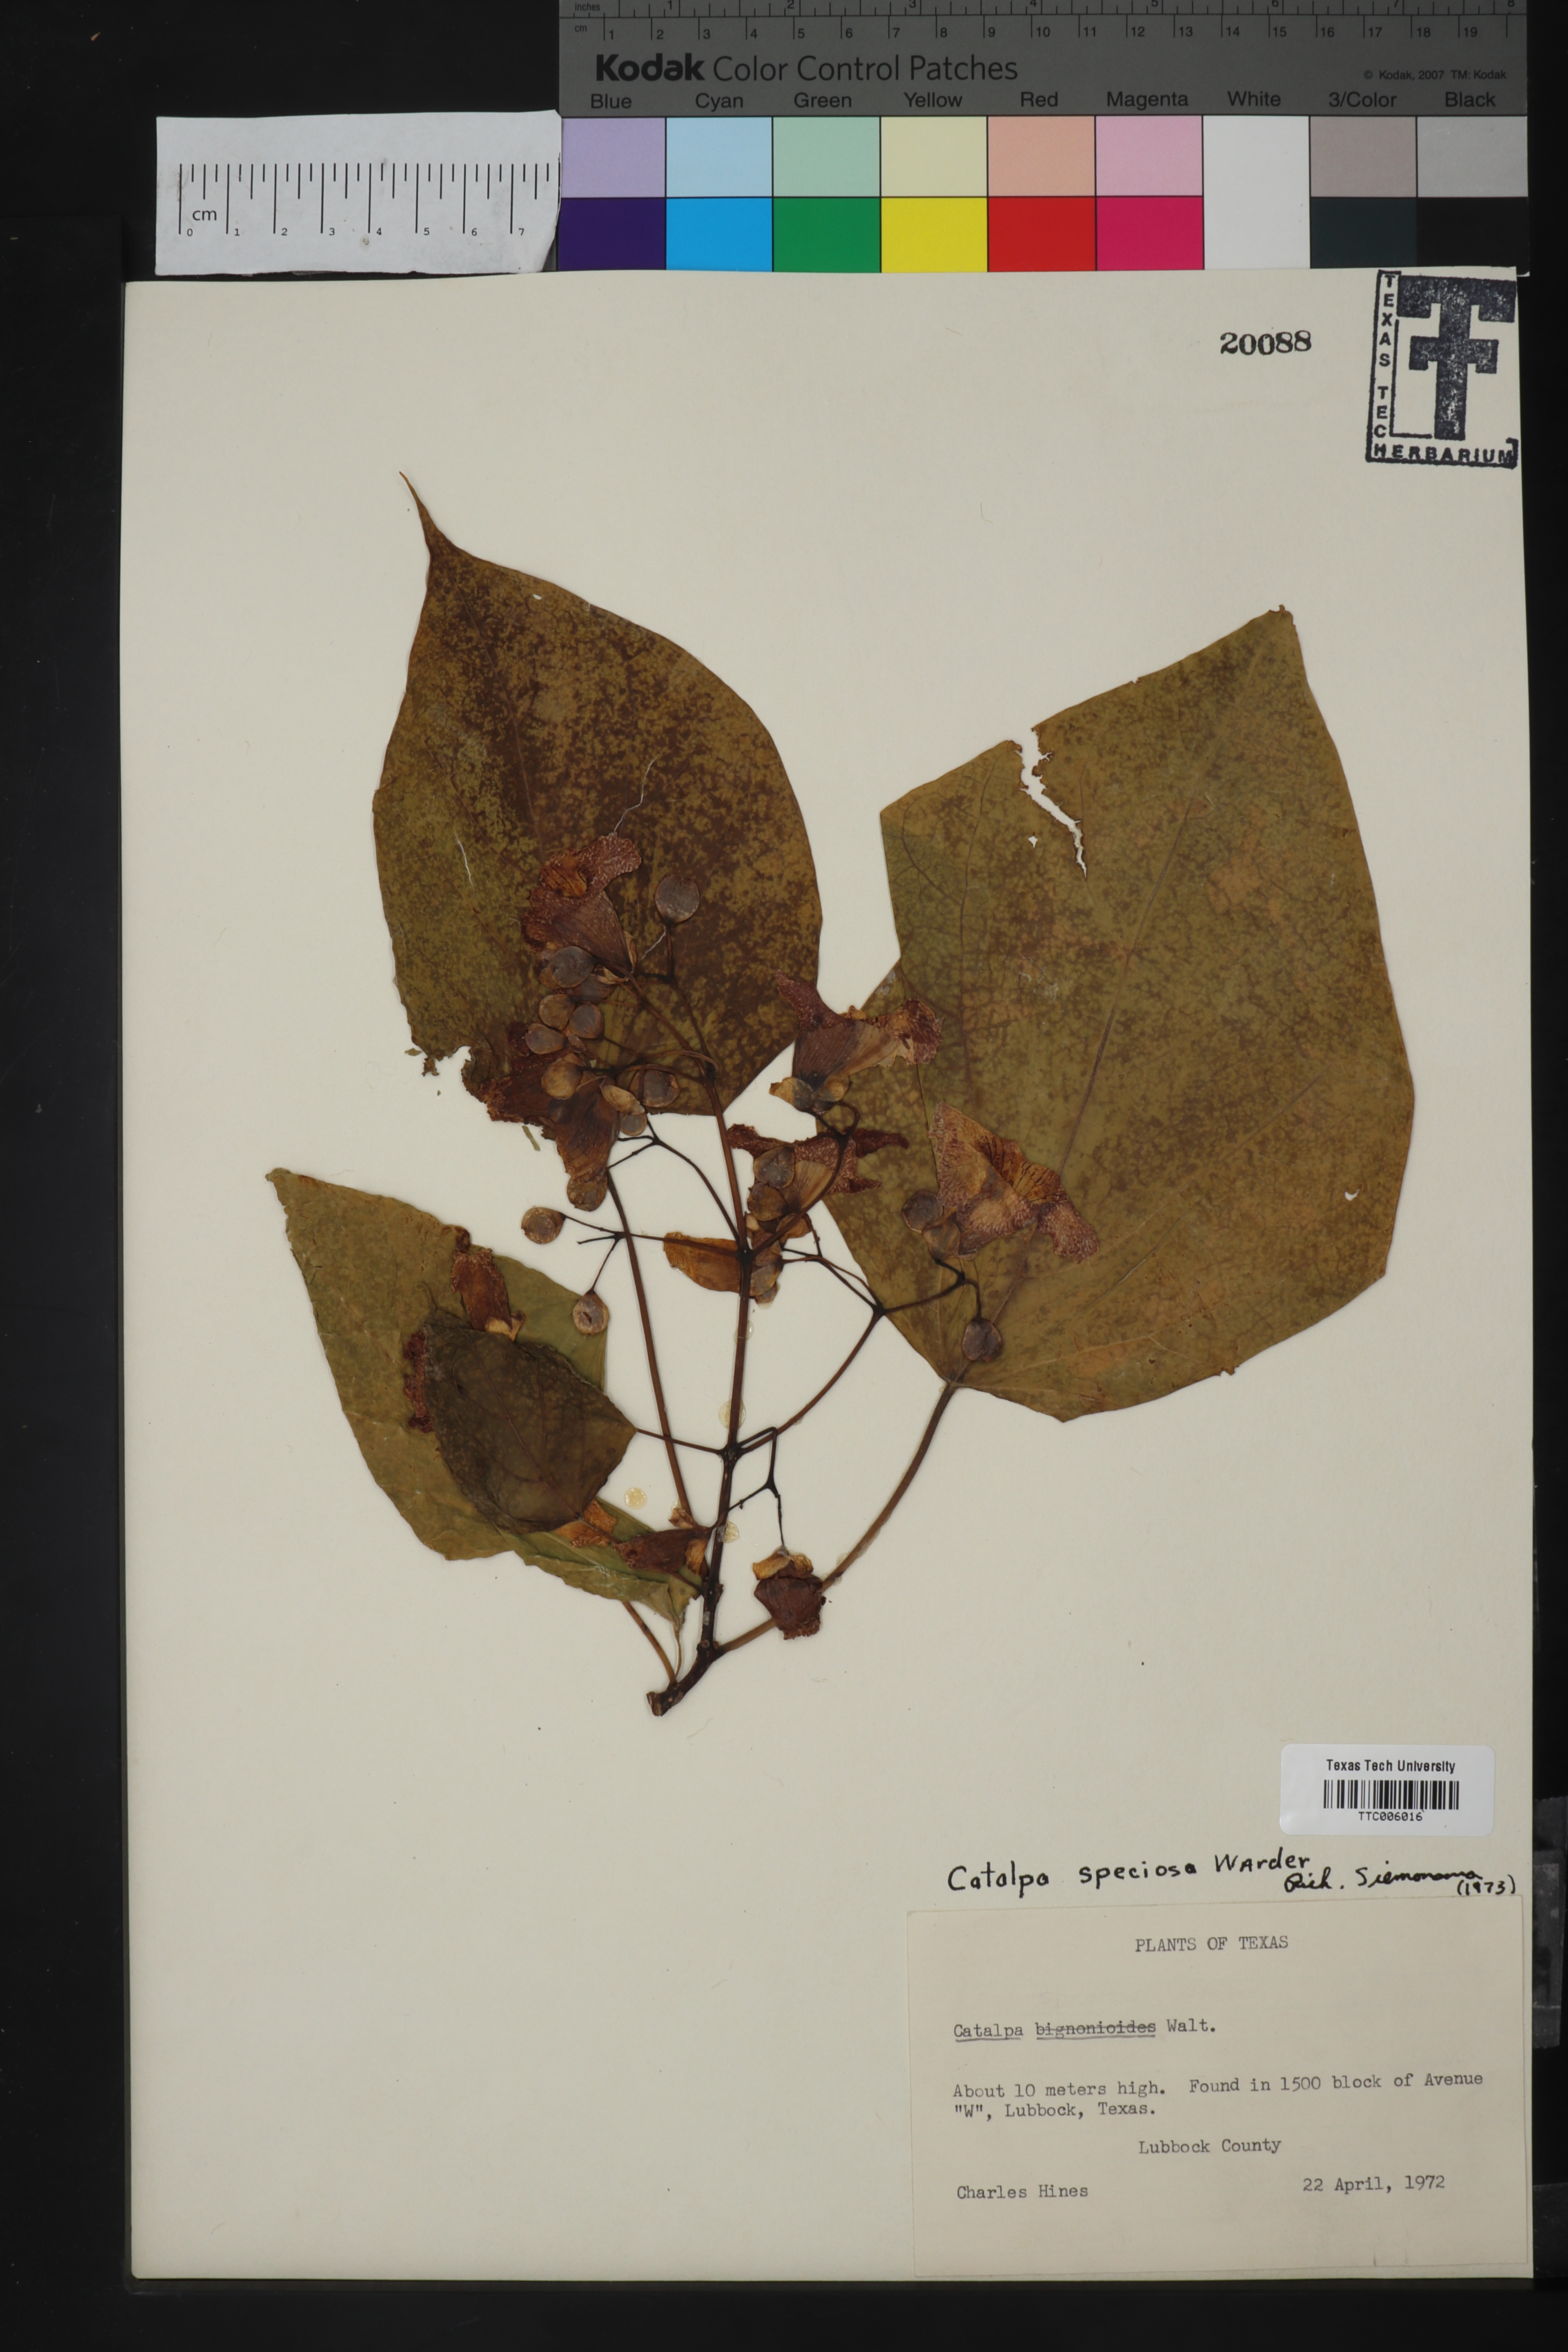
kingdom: Plantae
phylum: Tracheophyta
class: Magnoliopsida
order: Lamiales
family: Bignoniaceae
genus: Catalpa
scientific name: Catalpa speciosa
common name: Northern catalpa
